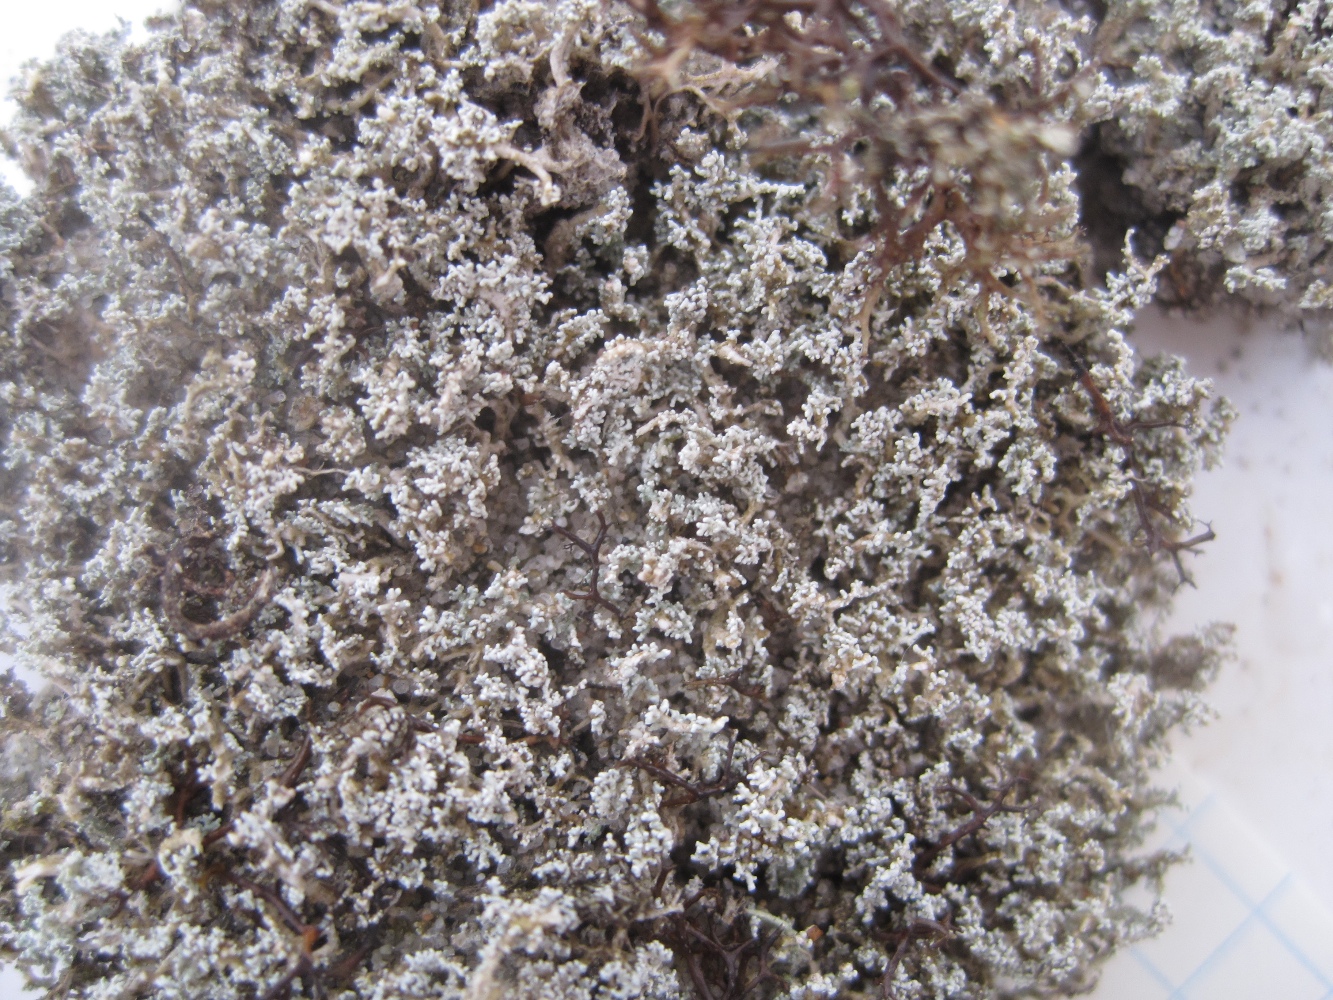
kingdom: Fungi
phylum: Ascomycota
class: Lecanoromycetes
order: Lecanorales
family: Stereocaulaceae
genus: Stereocaulon
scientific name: Stereocaulon condensatum
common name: lav korallav
